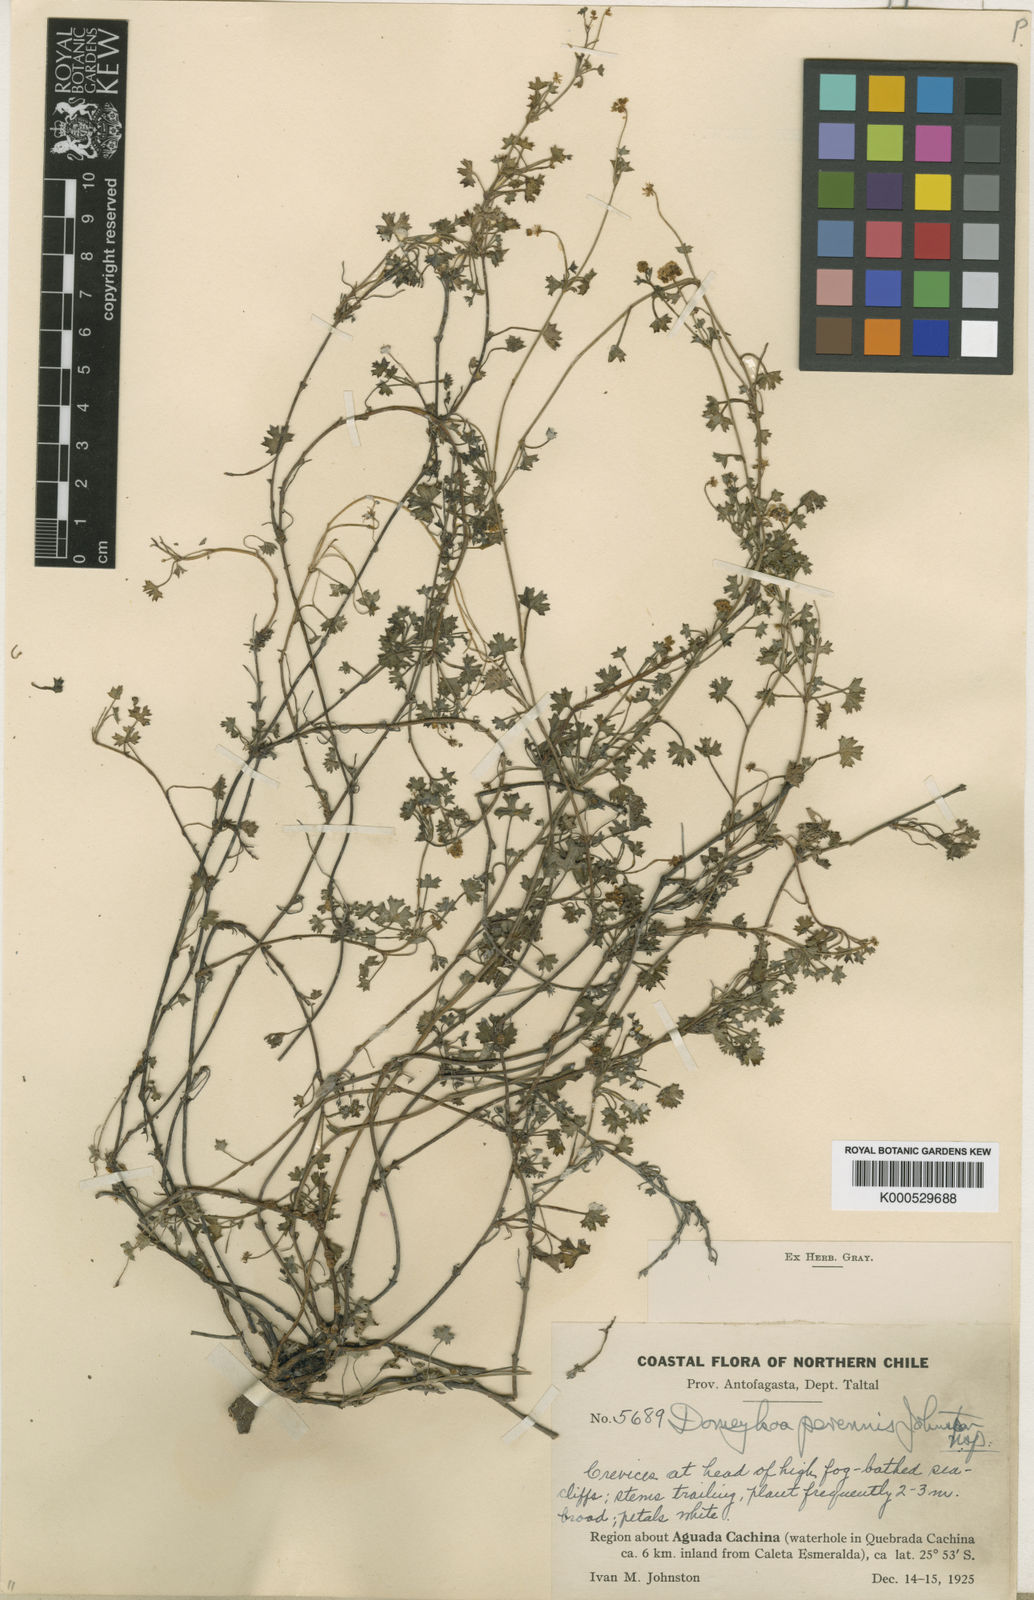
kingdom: Plantae
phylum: Tracheophyta
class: Magnoliopsida
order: Apiales
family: Apiaceae
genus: Domeykoa
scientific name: Domeykoa perennis
